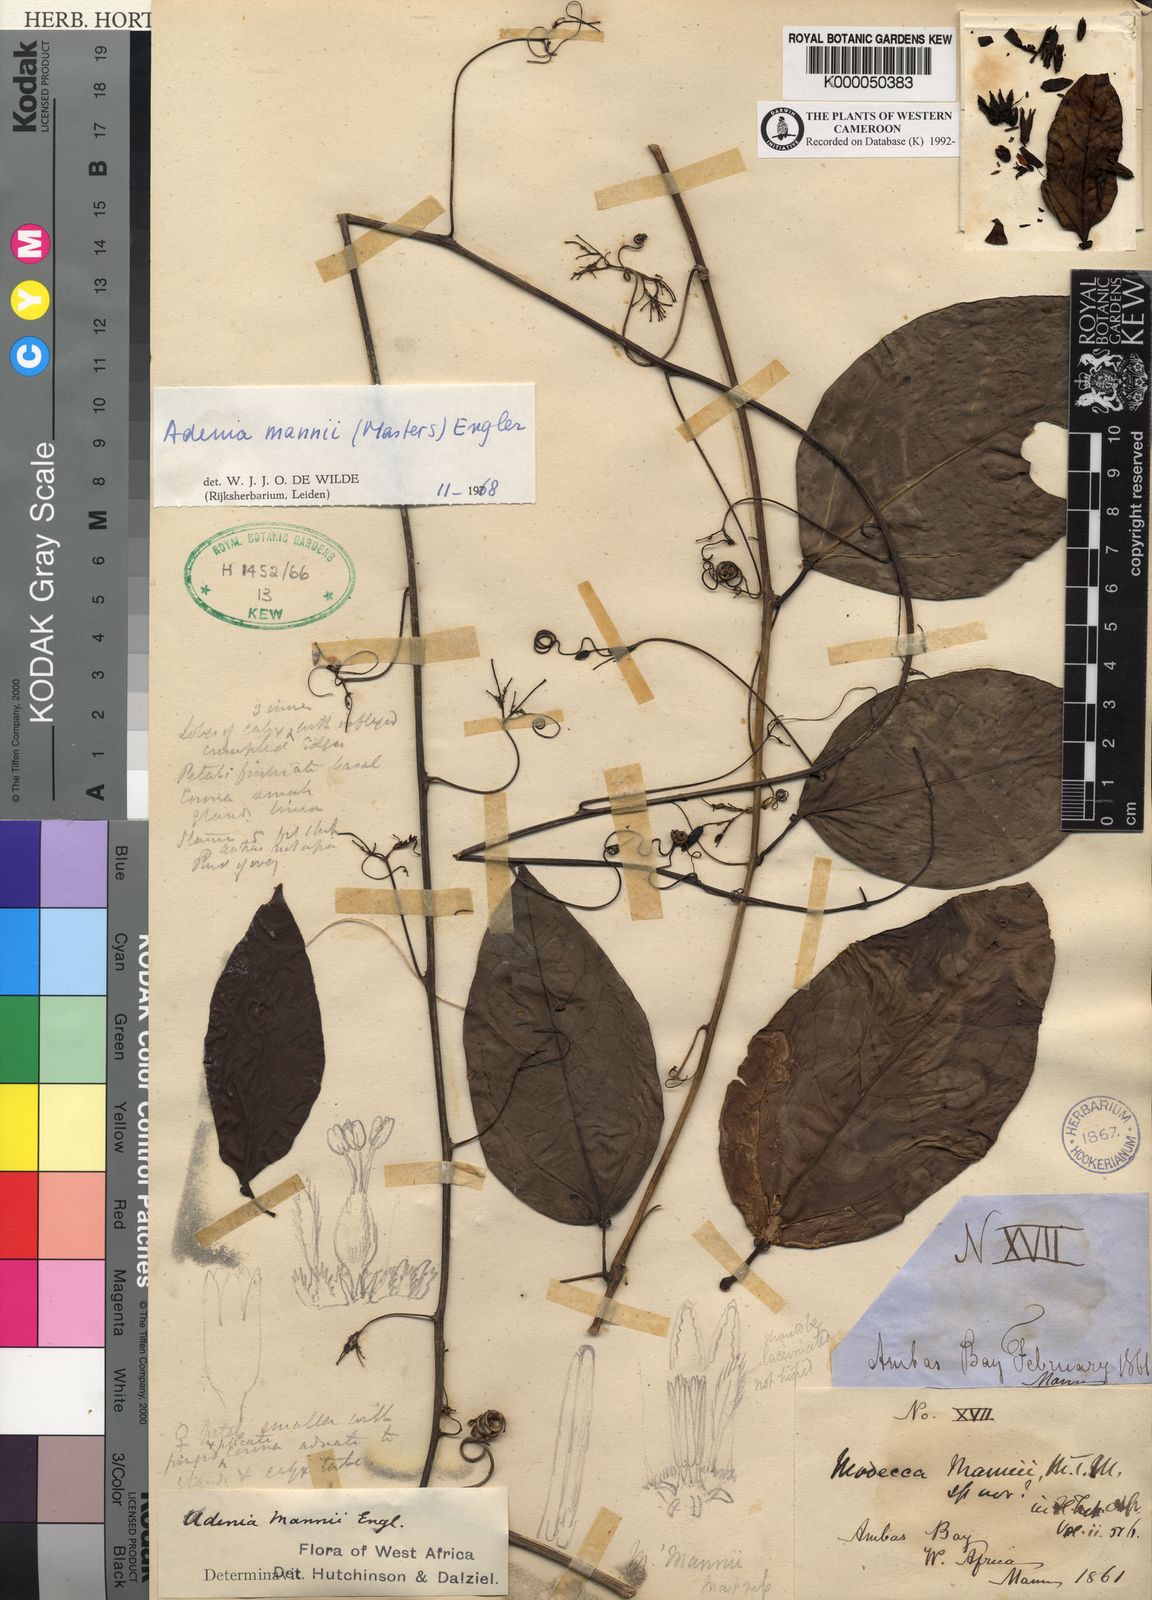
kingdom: Plantae
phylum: Tracheophyta
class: Magnoliopsida
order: Malpighiales
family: Passifloraceae
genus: Adenia
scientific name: Adenia mannii
